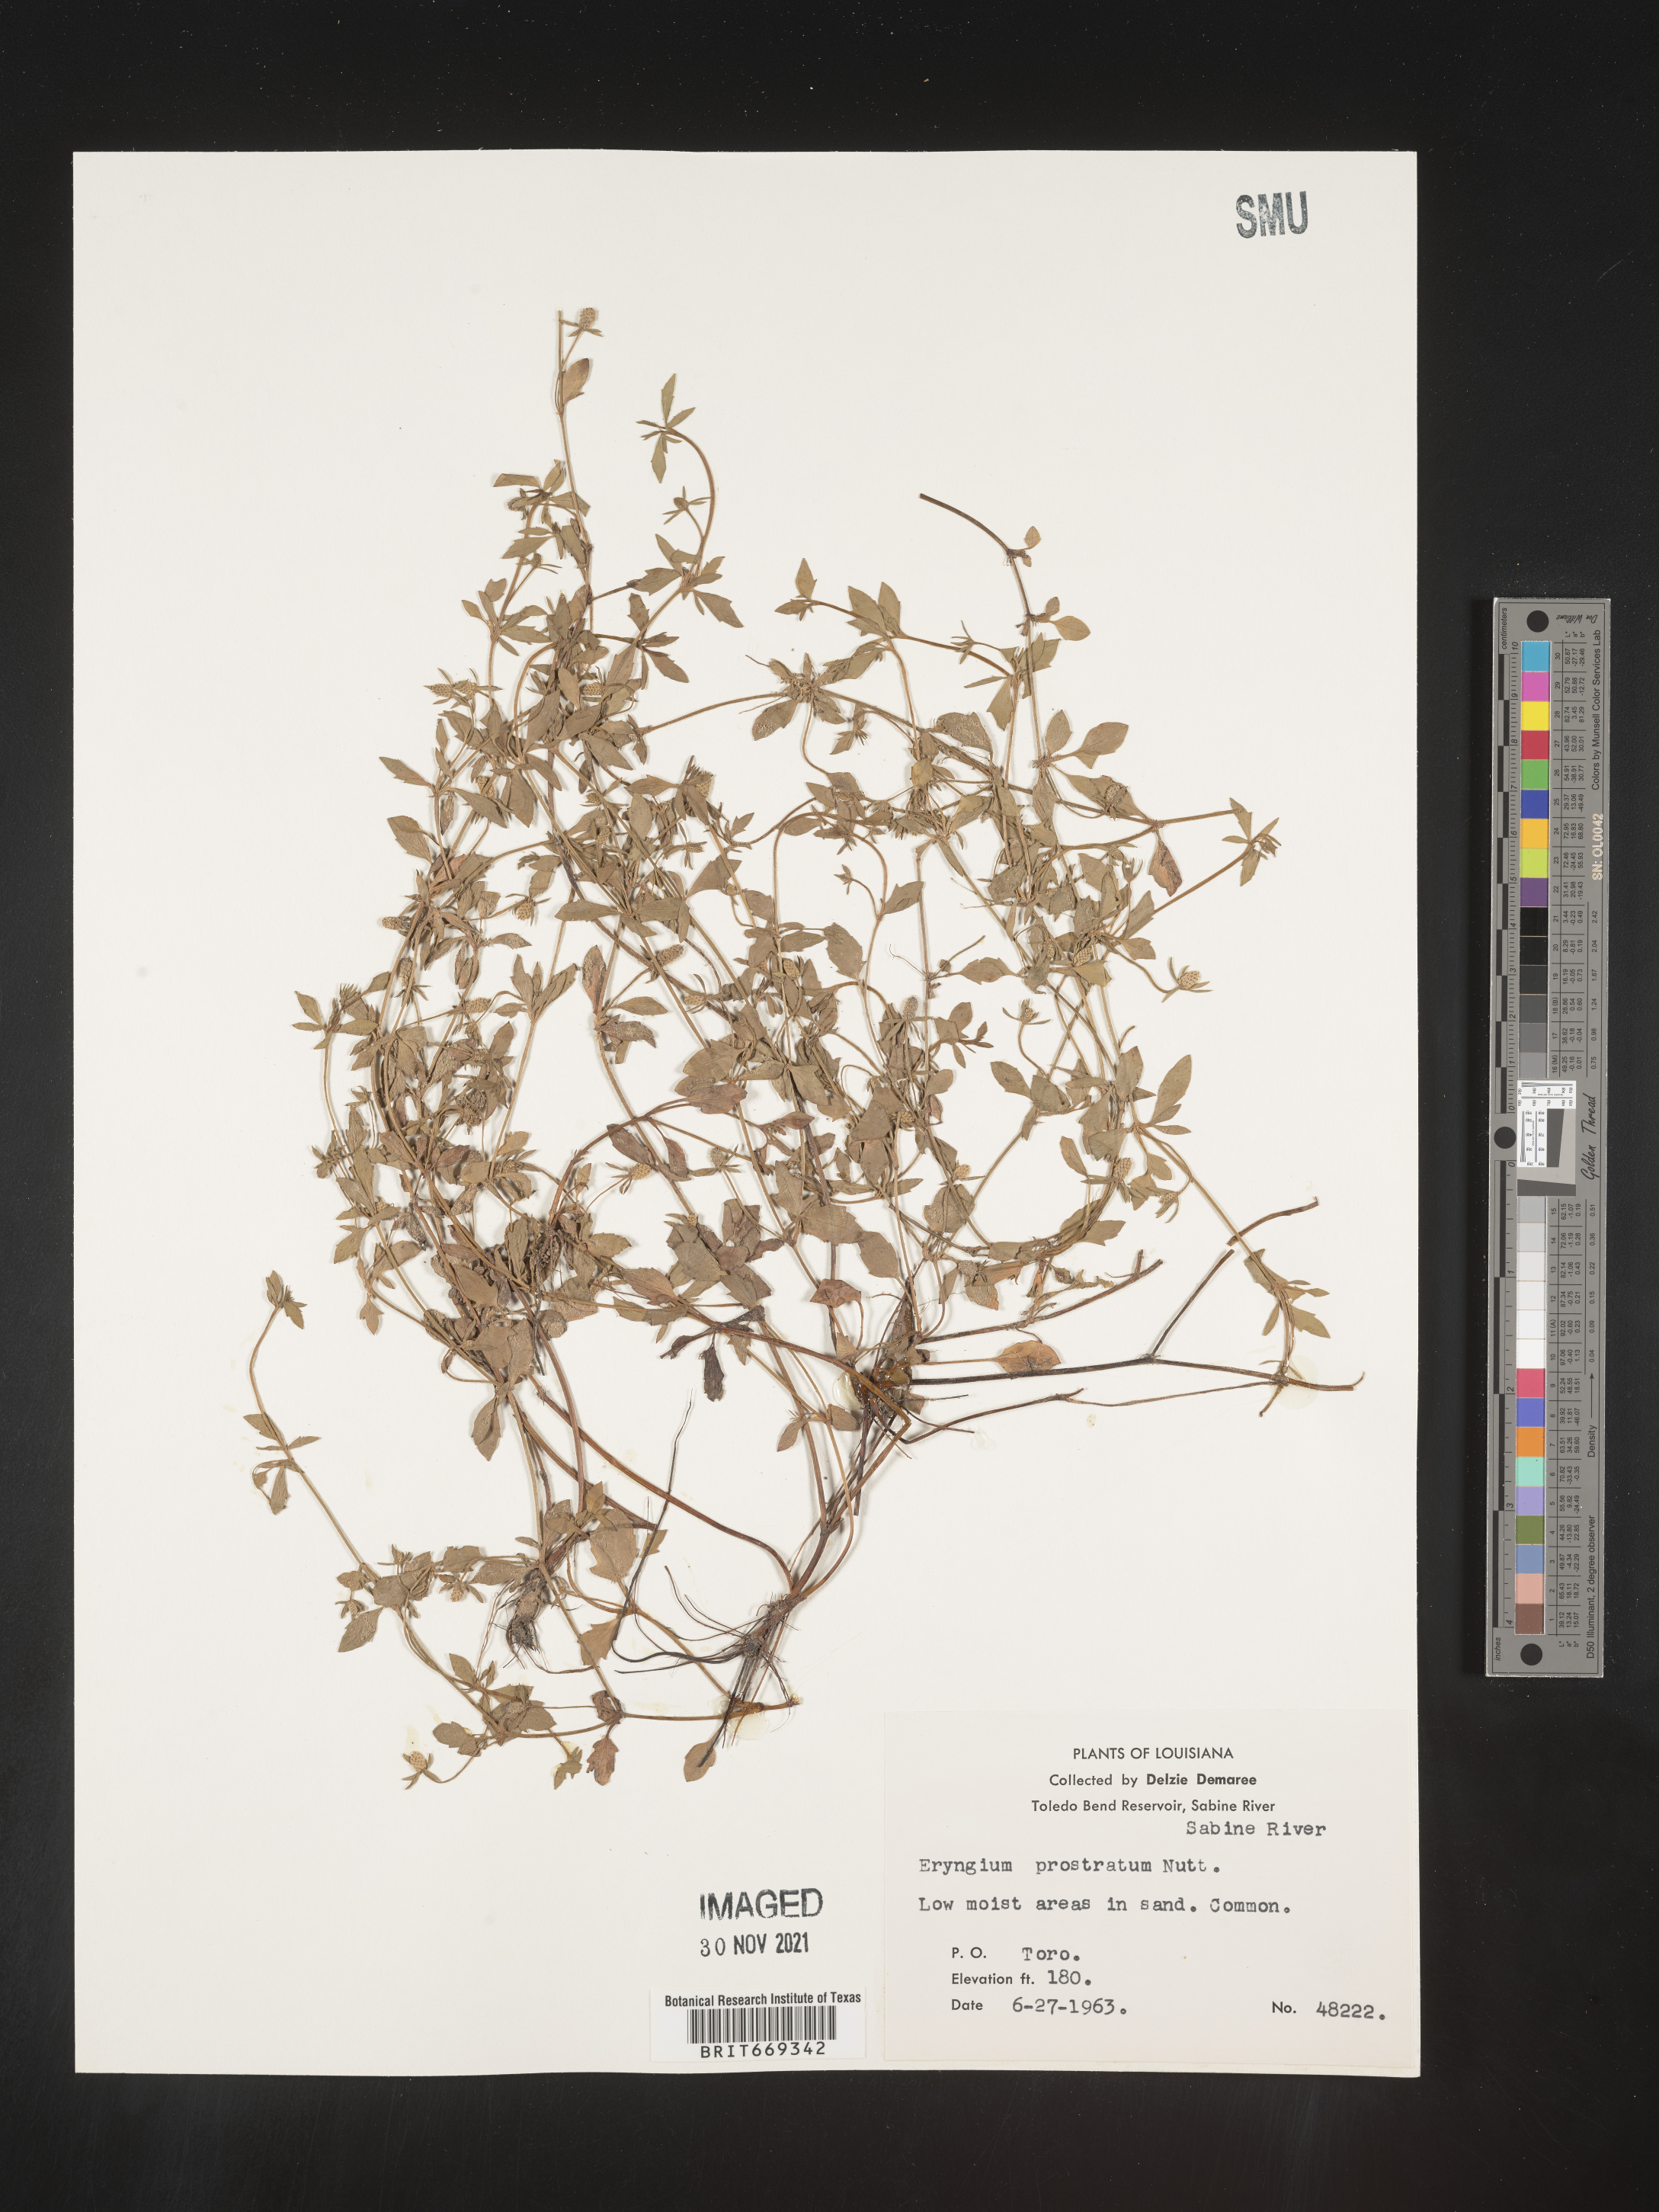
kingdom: Plantae
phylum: Tracheophyta
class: Magnoliopsida
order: Apiales
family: Apiaceae
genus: Eryngium
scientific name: Eryngium prostratum
